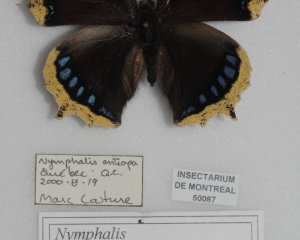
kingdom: Animalia
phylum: Arthropoda
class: Insecta
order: Lepidoptera
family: Nymphalidae
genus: Nymphalis
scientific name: Nymphalis antiopa
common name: Mourning Cloak
